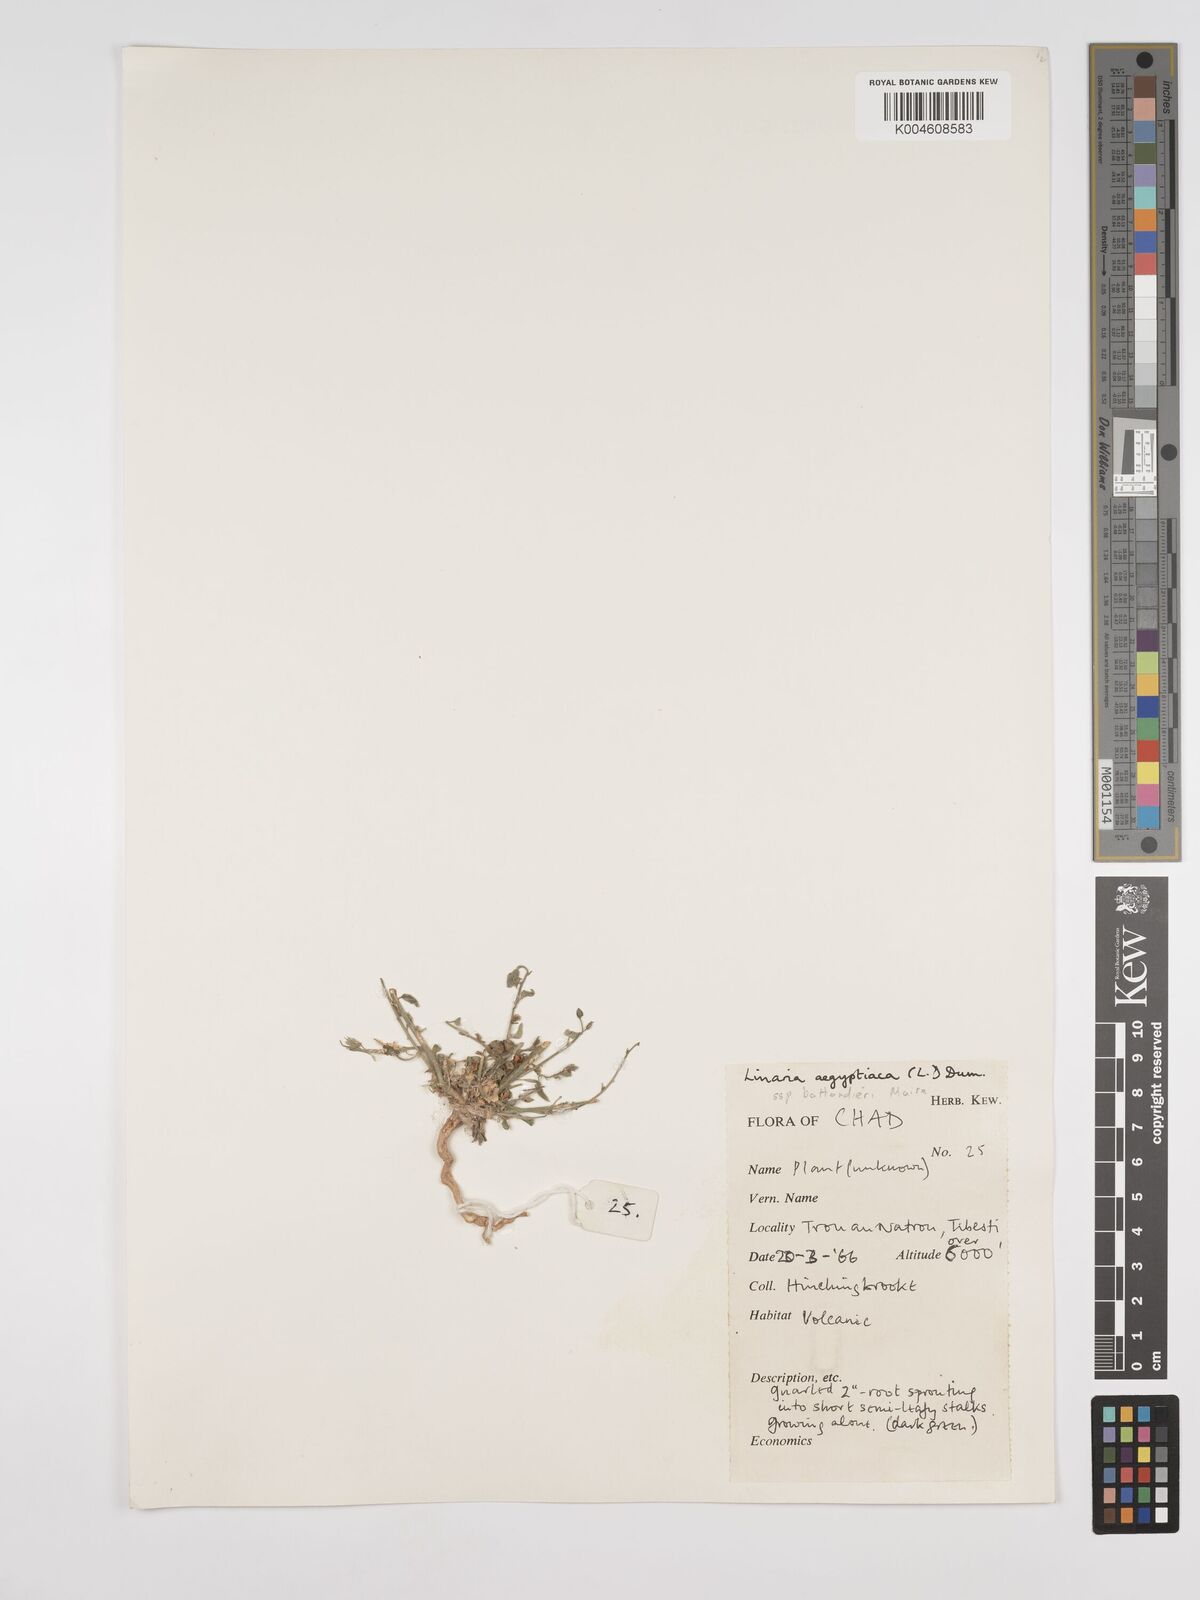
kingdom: Plantae
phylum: Tracheophyta
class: Magnoliopsida
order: Lamiales
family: Plantaginaceae
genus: Kickxia
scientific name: Kickxia aegyptiaca
